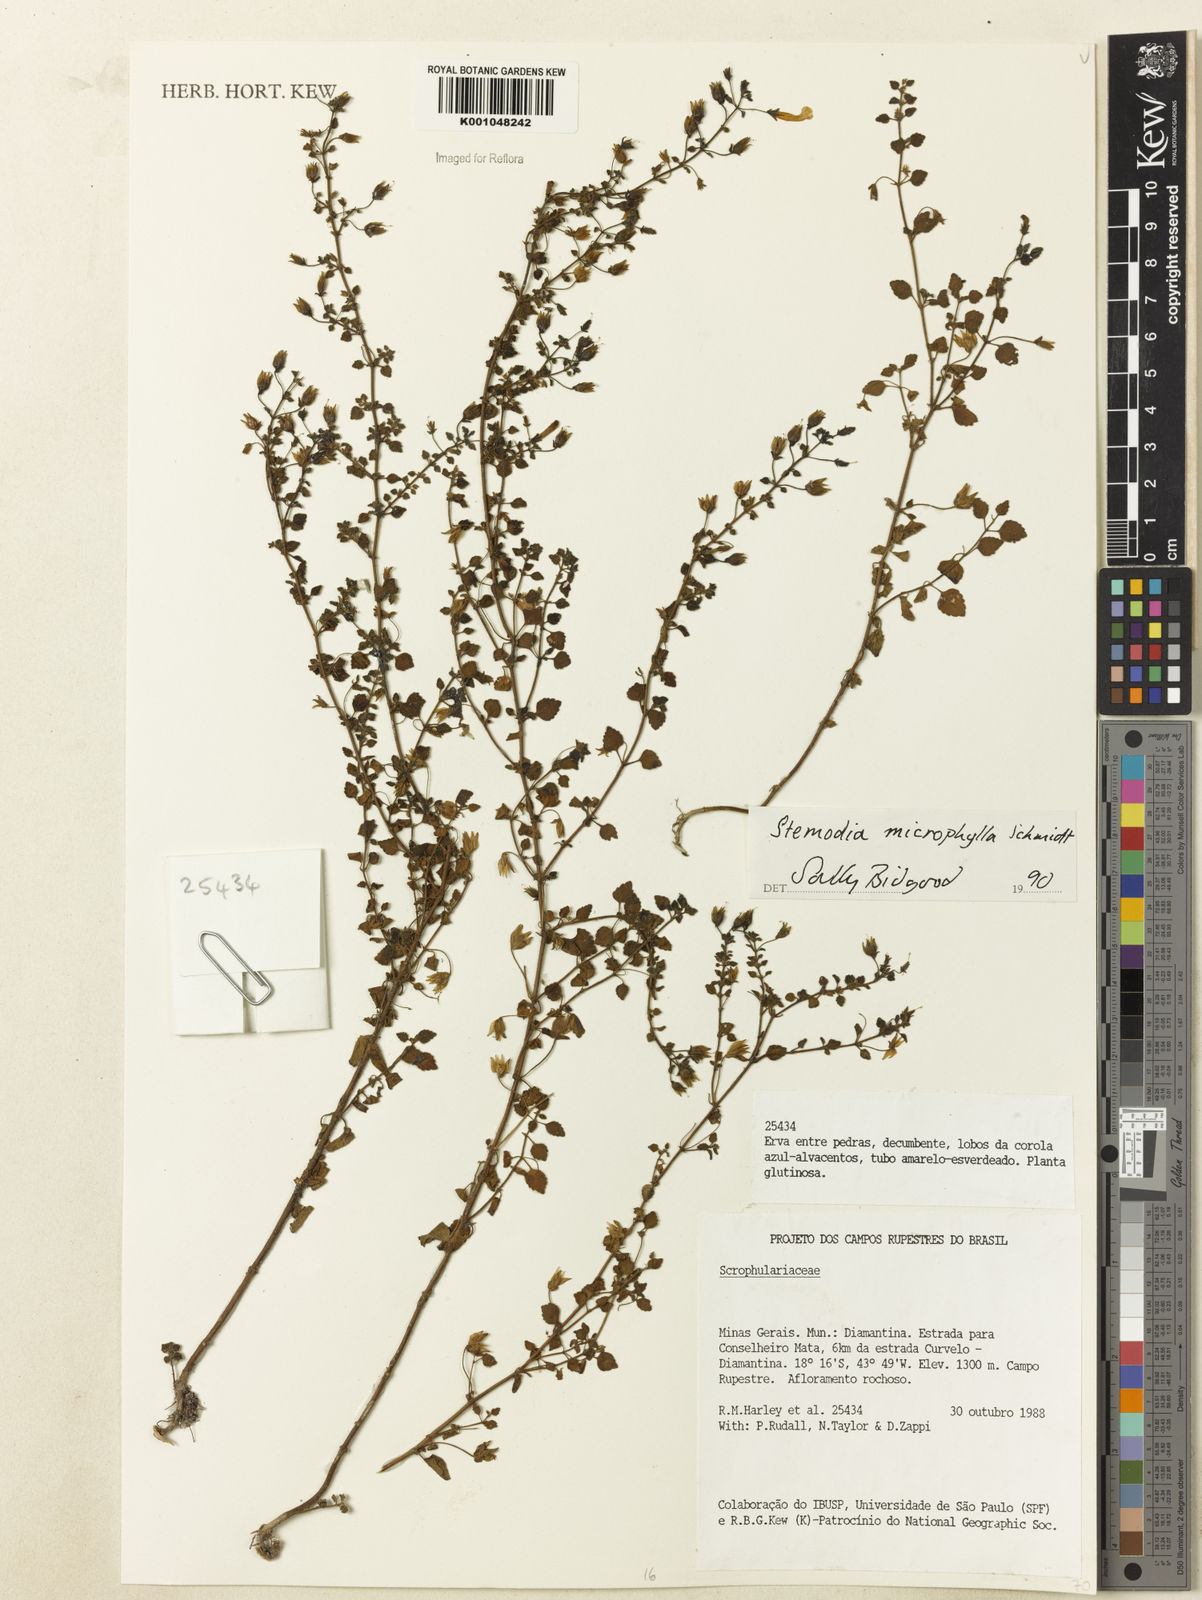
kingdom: Plantae
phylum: Tracheophyta
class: Magnoliopsida
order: Lamiales
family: Plantaginaceae
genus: Umbraria
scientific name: Umbraria microphylla
